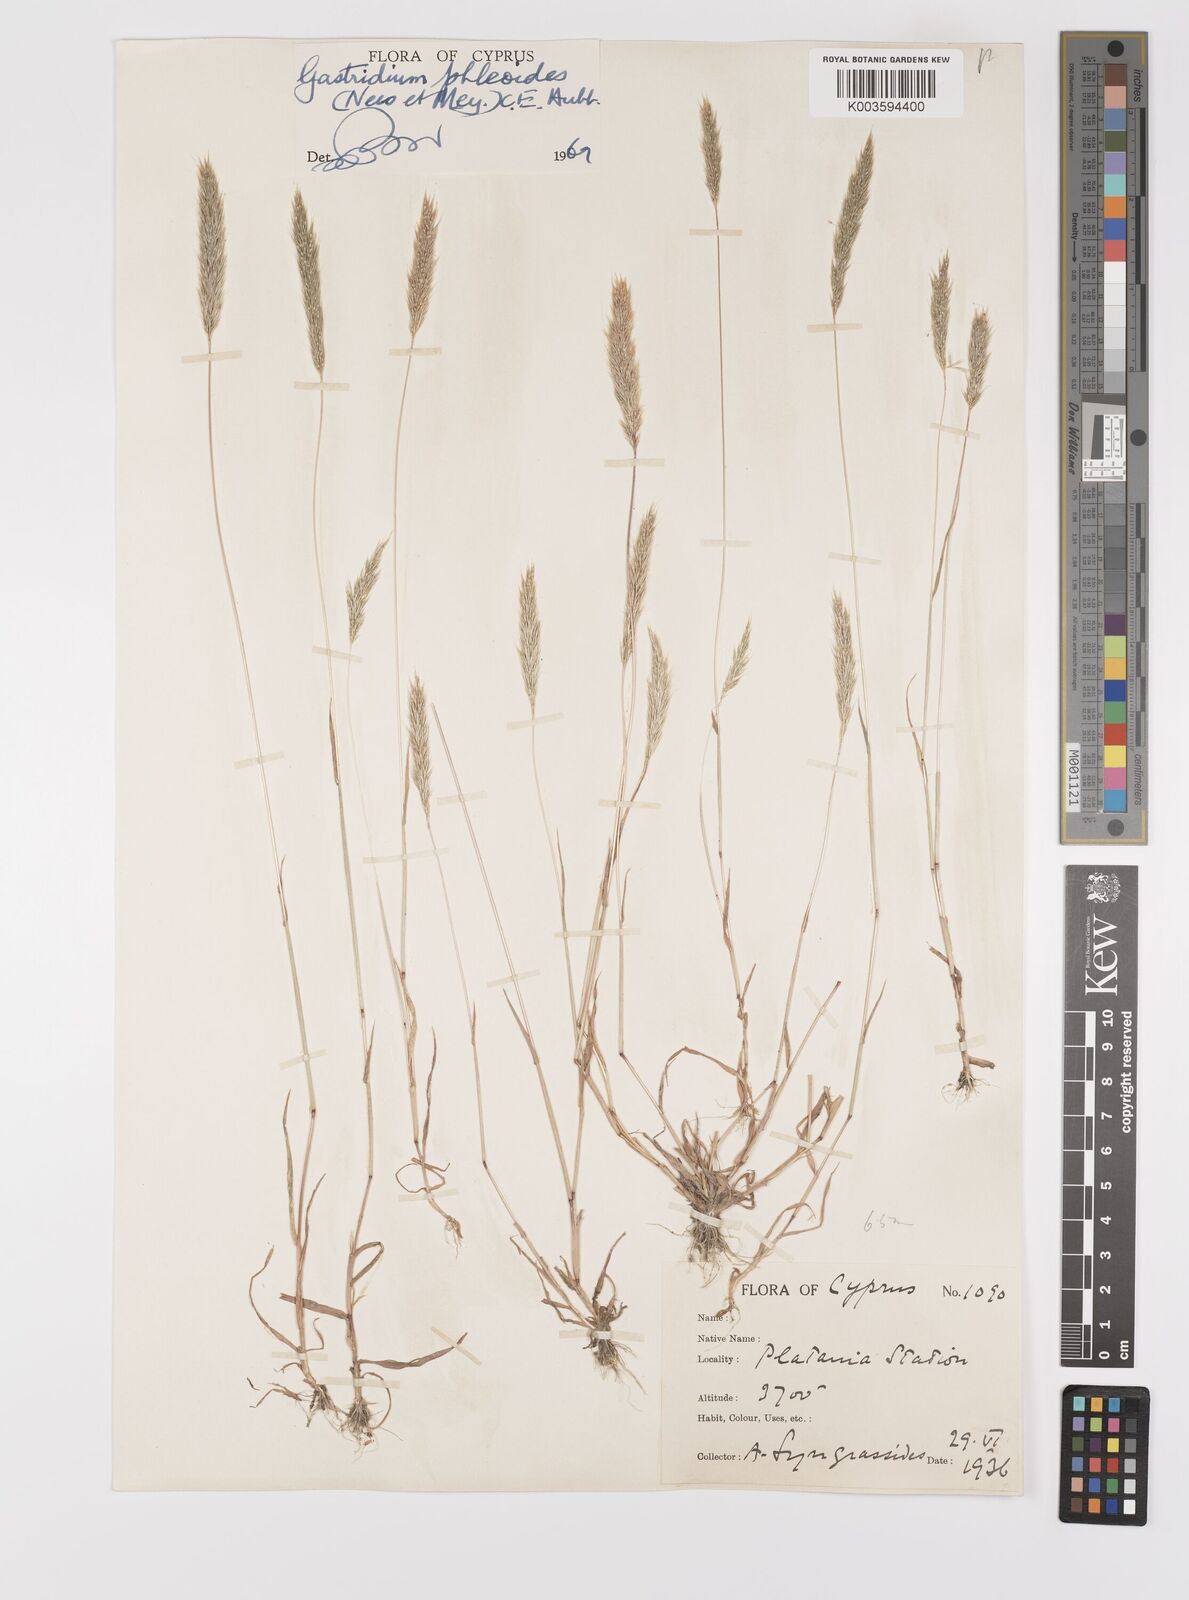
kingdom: Plantae
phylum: Tracheophyta
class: Liliopsida
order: Poales
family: Poaceae
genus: Gastridium
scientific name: Gastridium phleoides
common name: Nit grass
